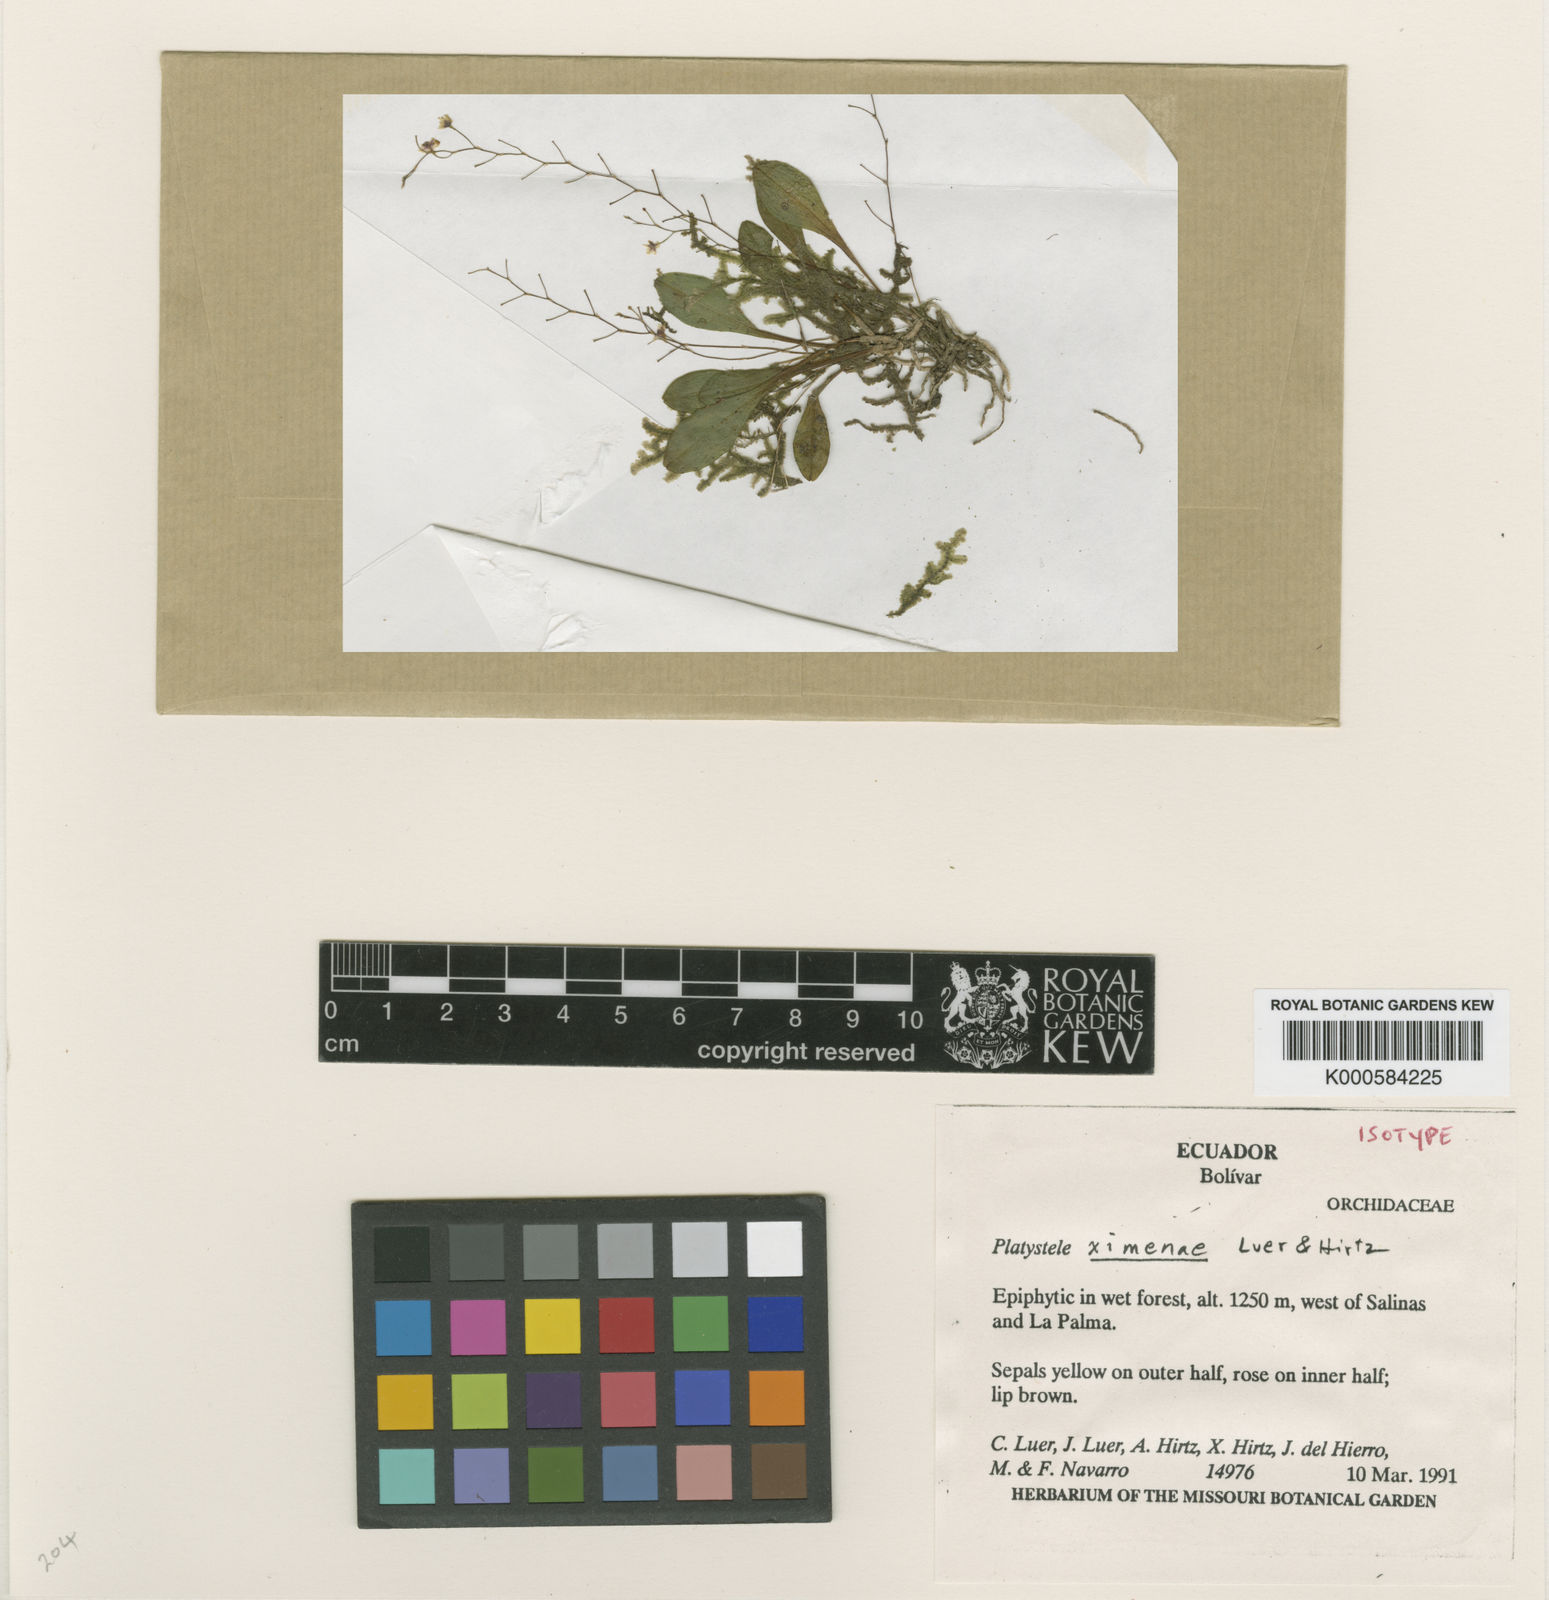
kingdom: Plantae
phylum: Tracheophyta
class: Liliopsida
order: Asparagales
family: Orchidaceae
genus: Scaphosepalum
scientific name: Scaphosepalum ximenae
